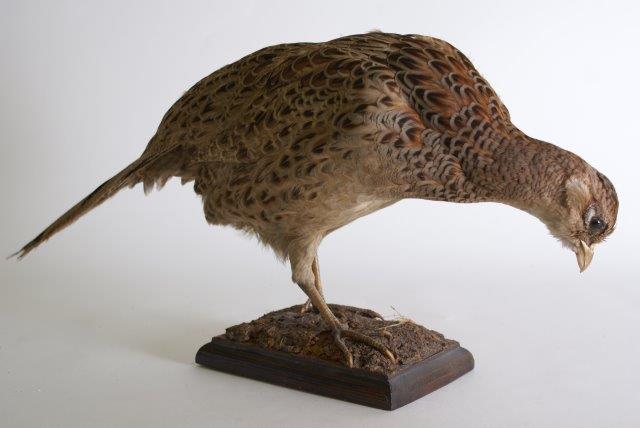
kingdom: Animalia
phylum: Chordata
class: Aves
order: Galliformes
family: Phasianidae
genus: Phasianus
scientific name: Phasianus colchicus
